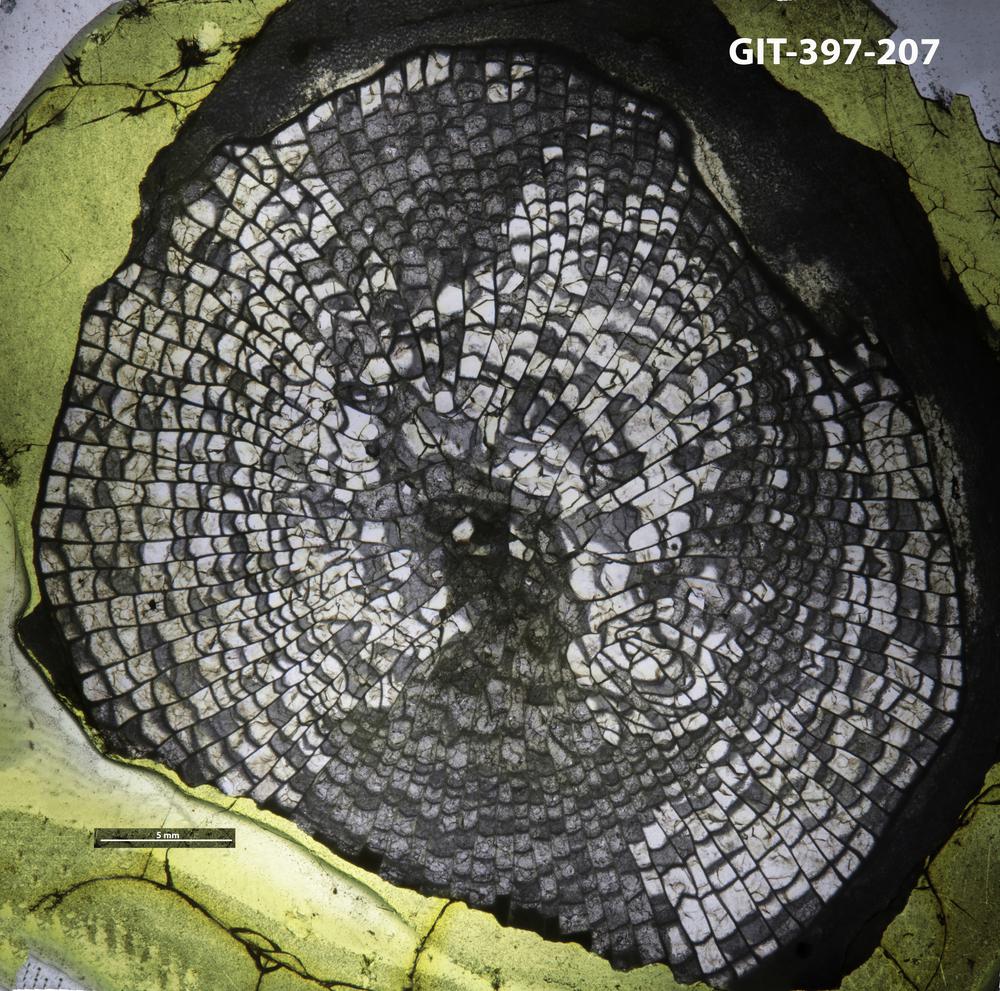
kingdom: Animalia
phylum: Cnidaria
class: Anthozoa
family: Lykophyllidae
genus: Neocystiphyllum
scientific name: Neocystiphyllum
